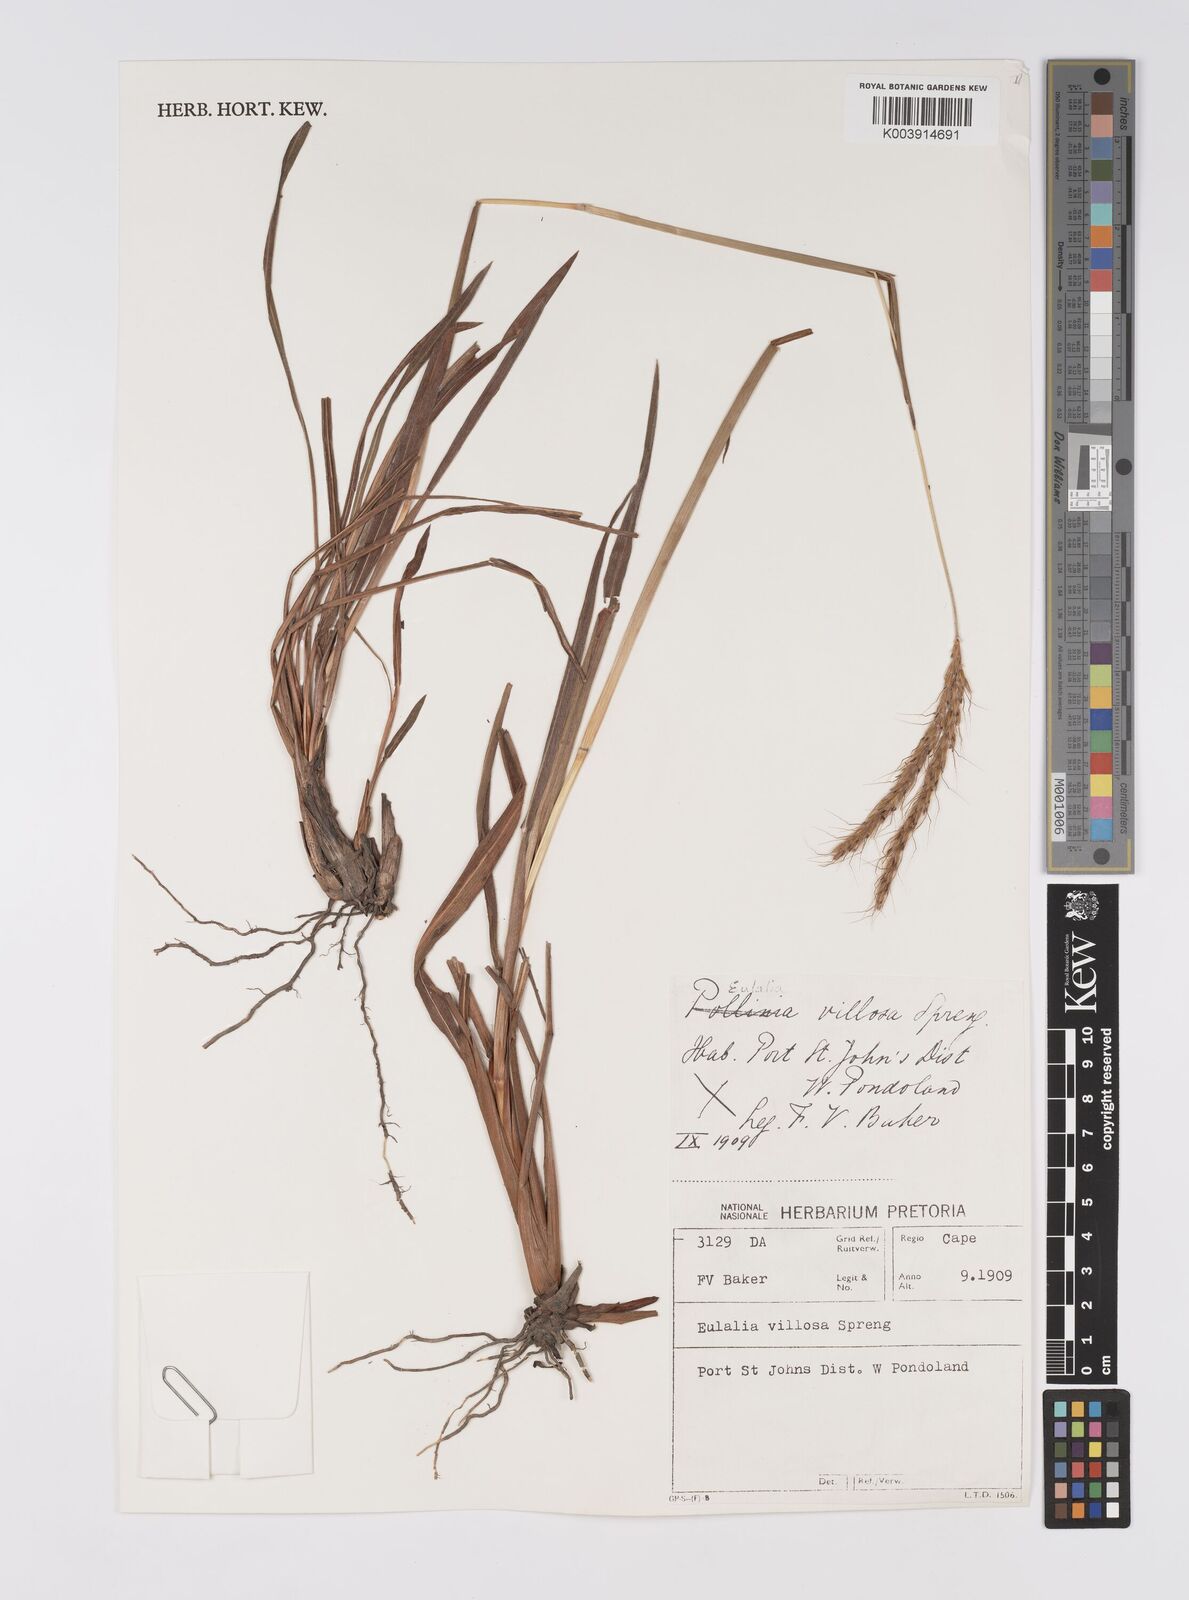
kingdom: Plantae
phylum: Tracheophyta
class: Liliopsida
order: Poales
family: Poaceae
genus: Eulalia
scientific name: Eulalia villosa
